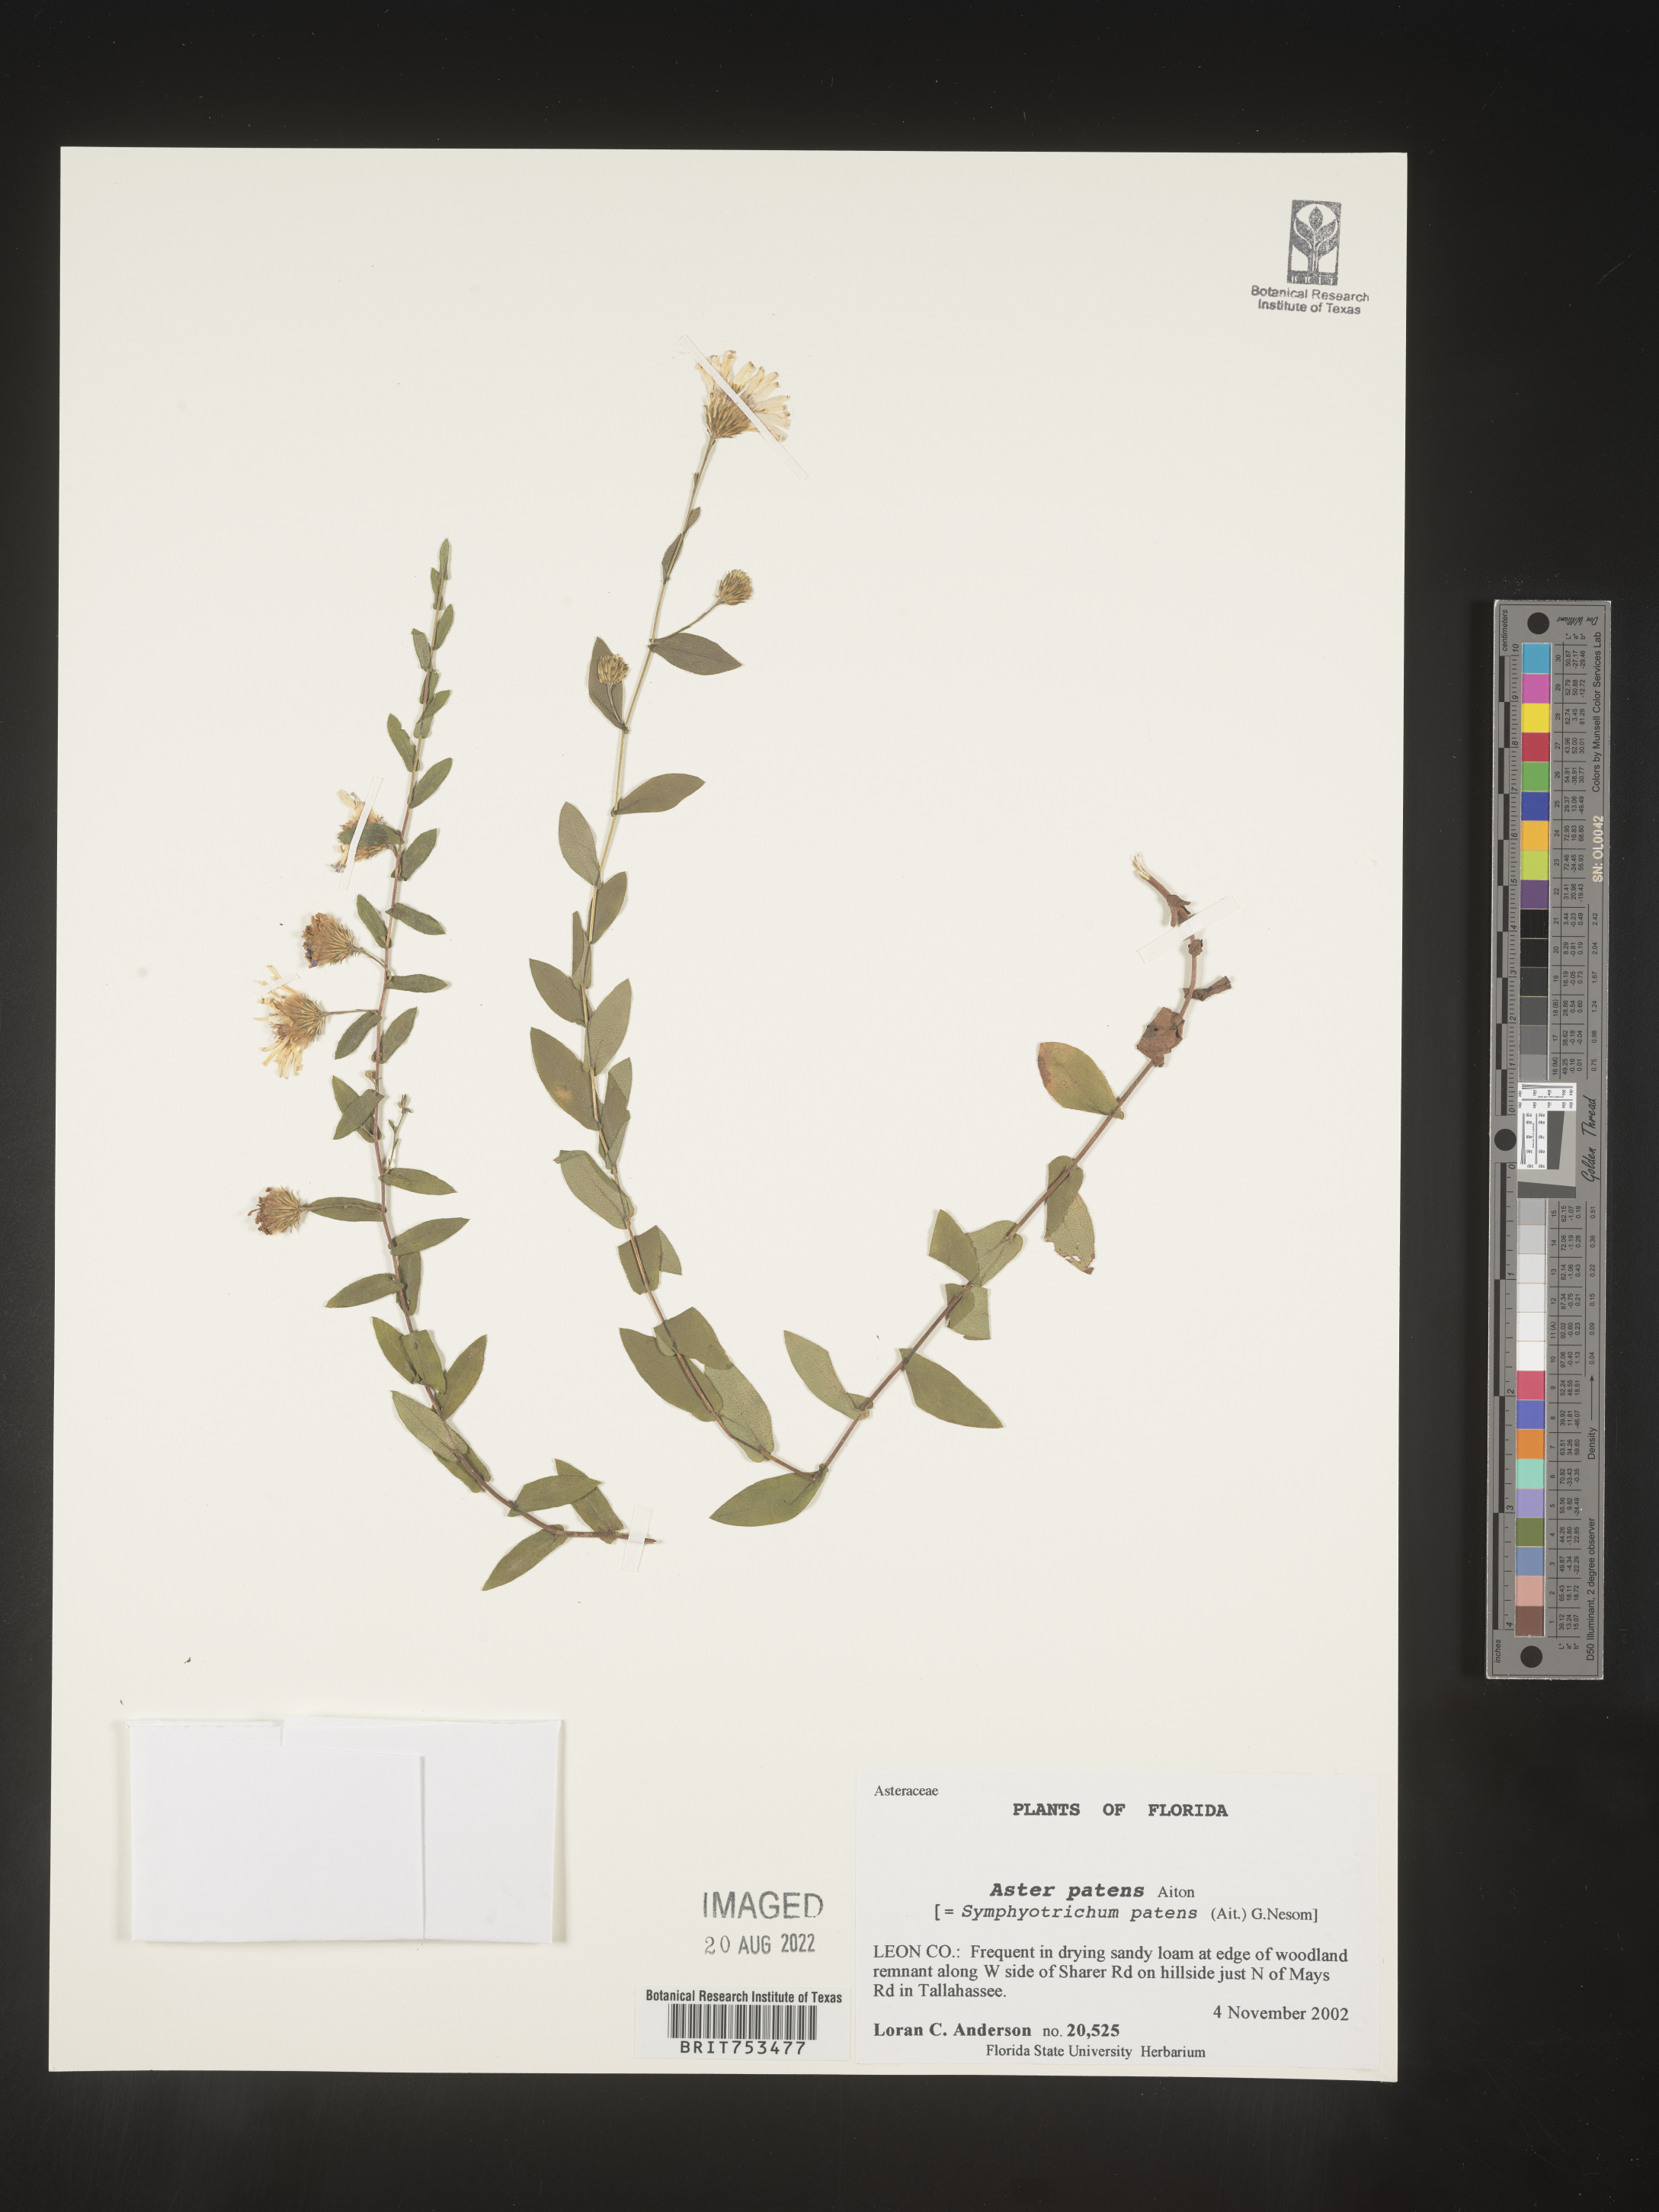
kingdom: Plantae
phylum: Tracheophyta
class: Magnoliopsida
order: Asterales
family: Asteraceae
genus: Symphyotrichum
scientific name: Symphyotrichum patens
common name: Late purple aster
